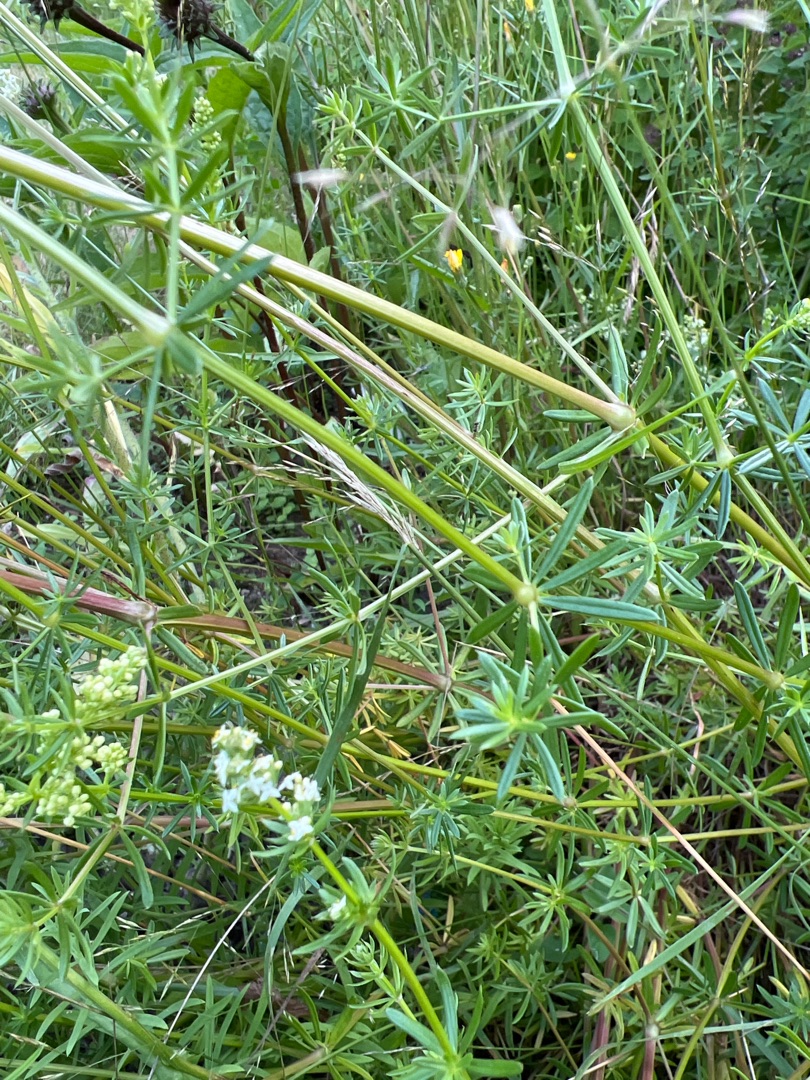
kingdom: Plantae
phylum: Tracheophyta
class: Magnoliopsida
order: Gentianales
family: Rubiaceae
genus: Galium
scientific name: Galium mollugo
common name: Hvid snerre
